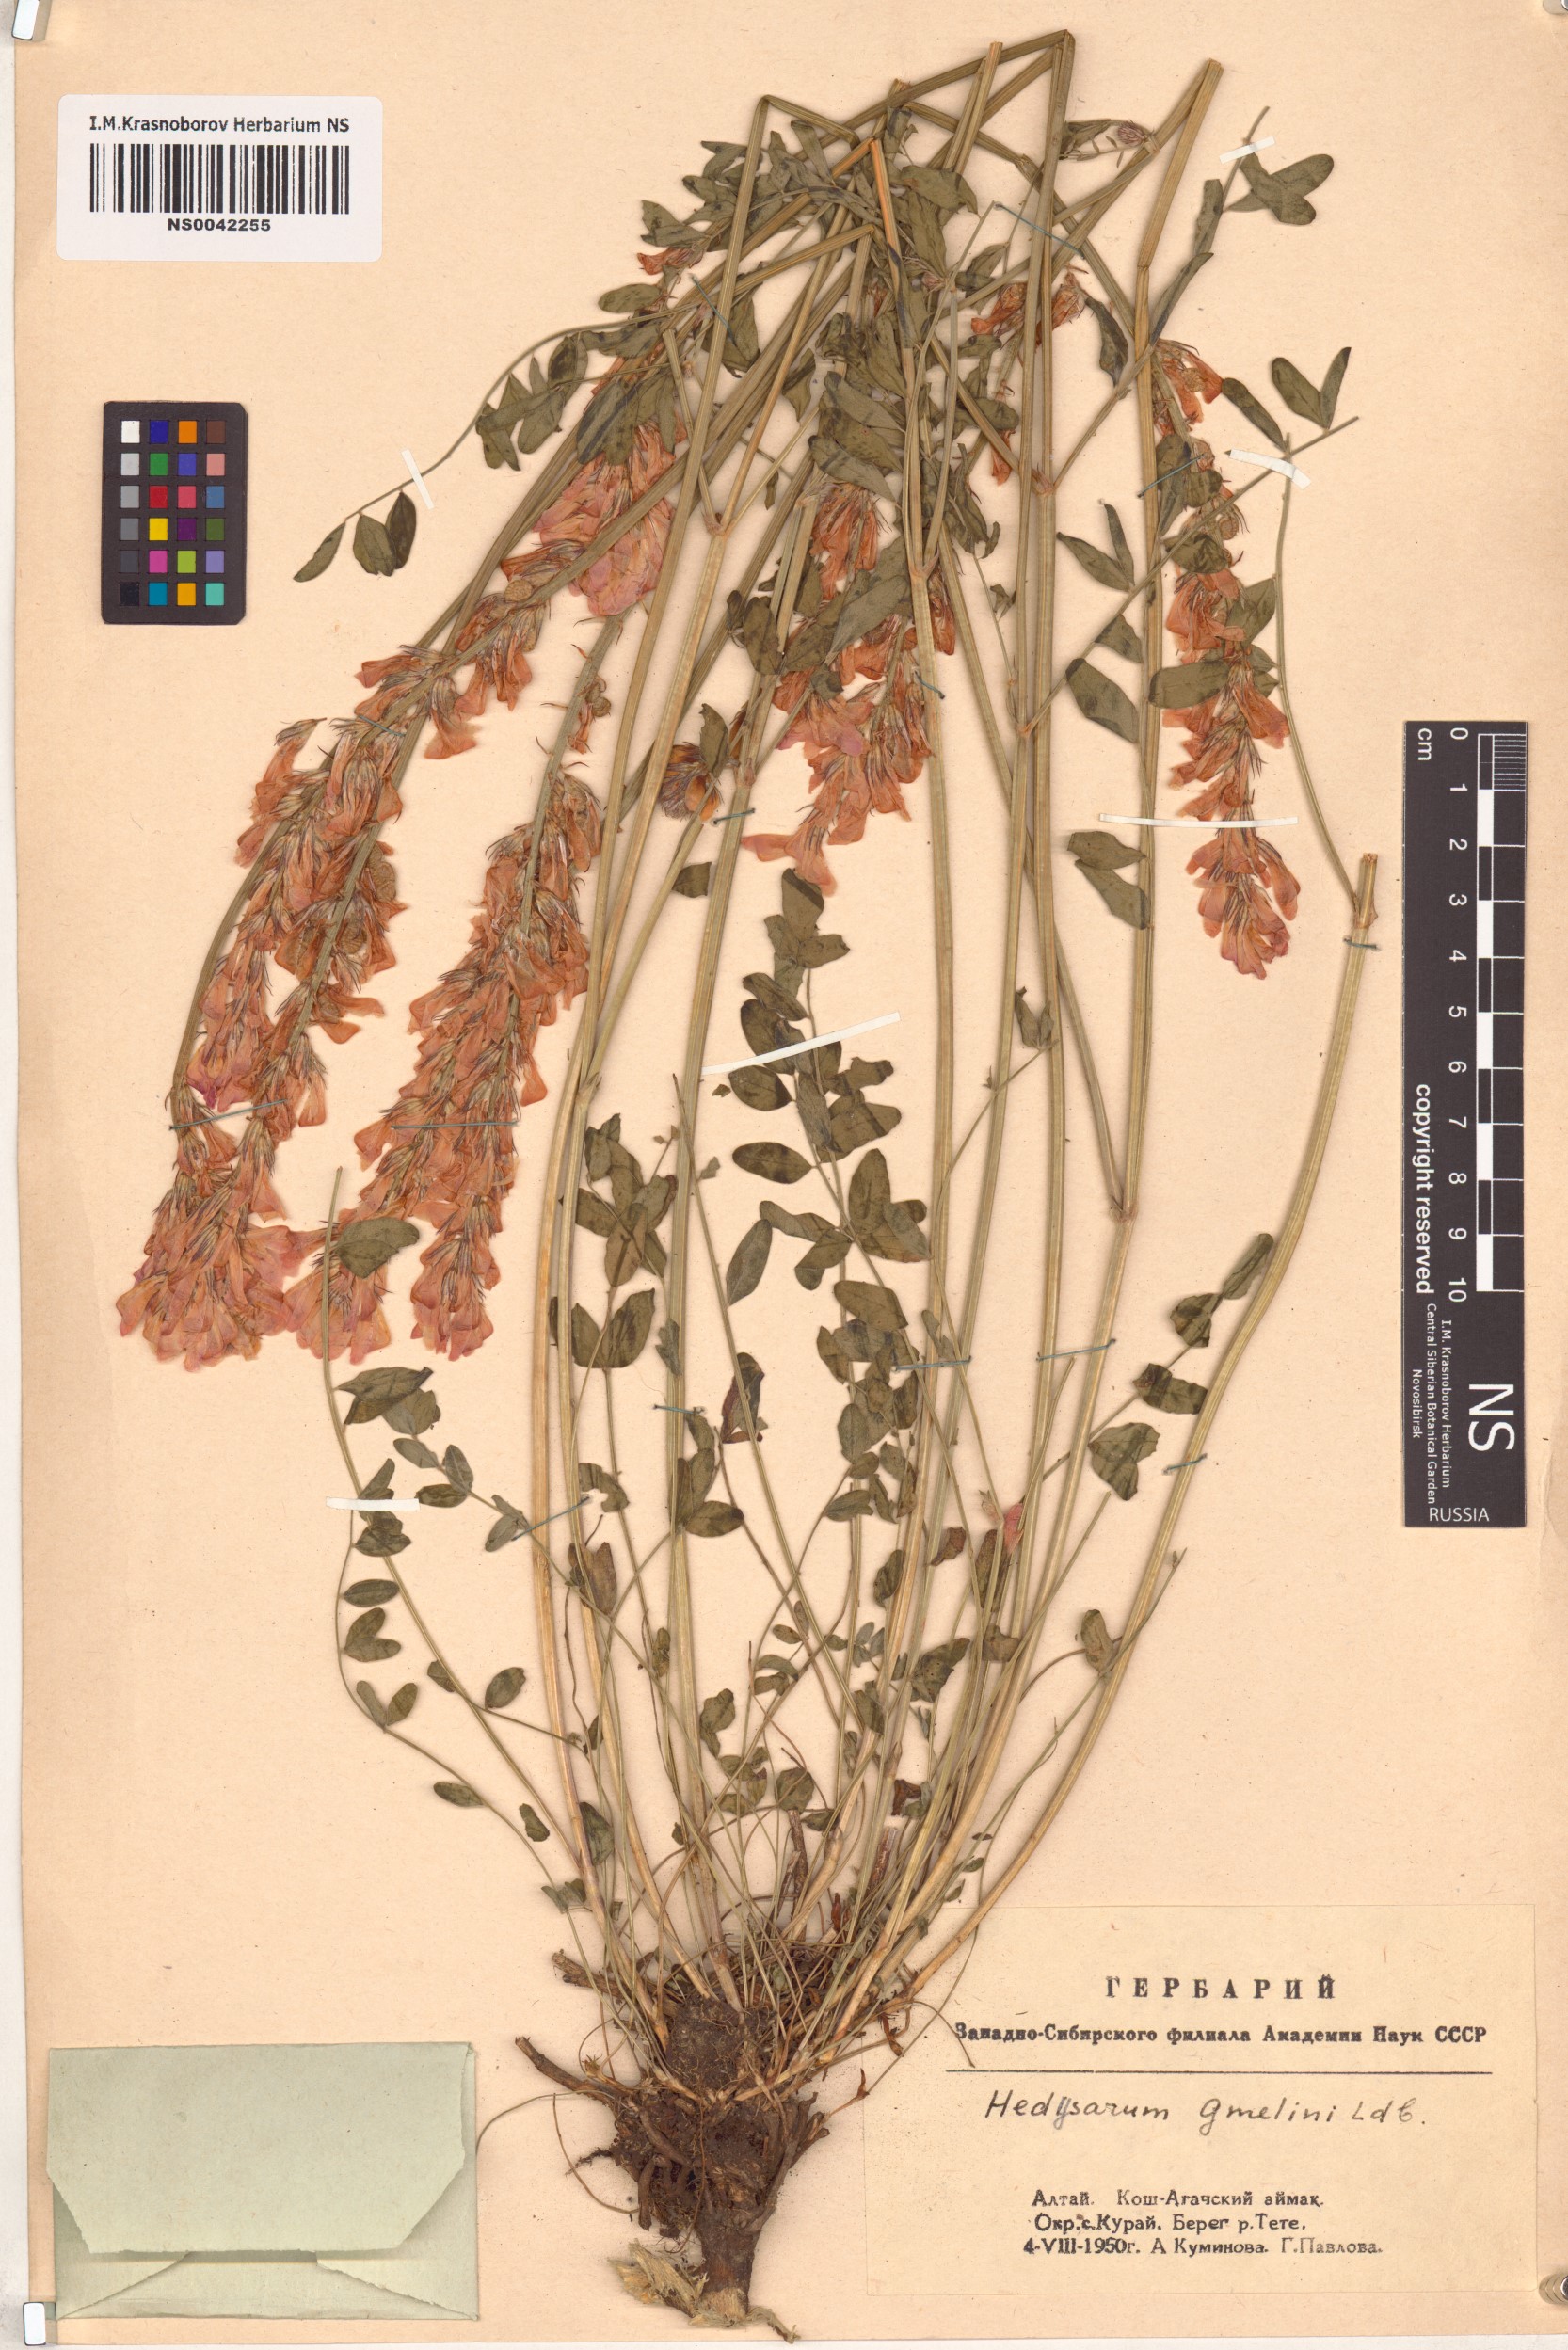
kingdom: Plantae
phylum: Tracheophyta
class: Magnoliopsida
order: Fabales
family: Fabaceae
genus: Hedysarum
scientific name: Hedysarum gmelinii
